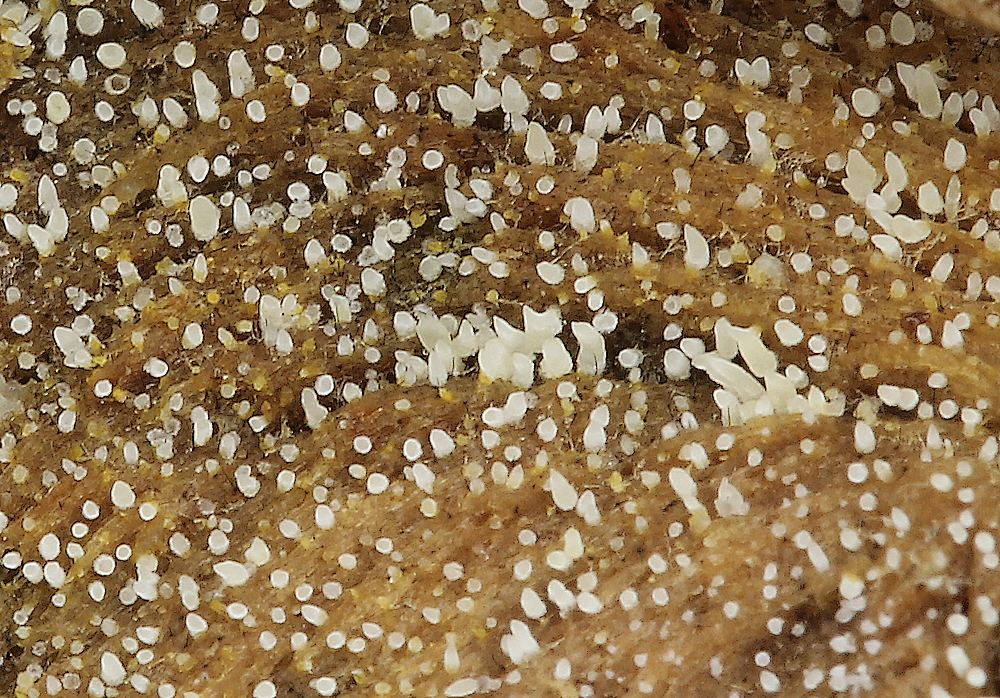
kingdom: Fungi
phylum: Basidiomycota
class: Agaricomycetes
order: Agaricales
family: Clavariaceae
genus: Mucronella
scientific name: Mucronella
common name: hængepig
